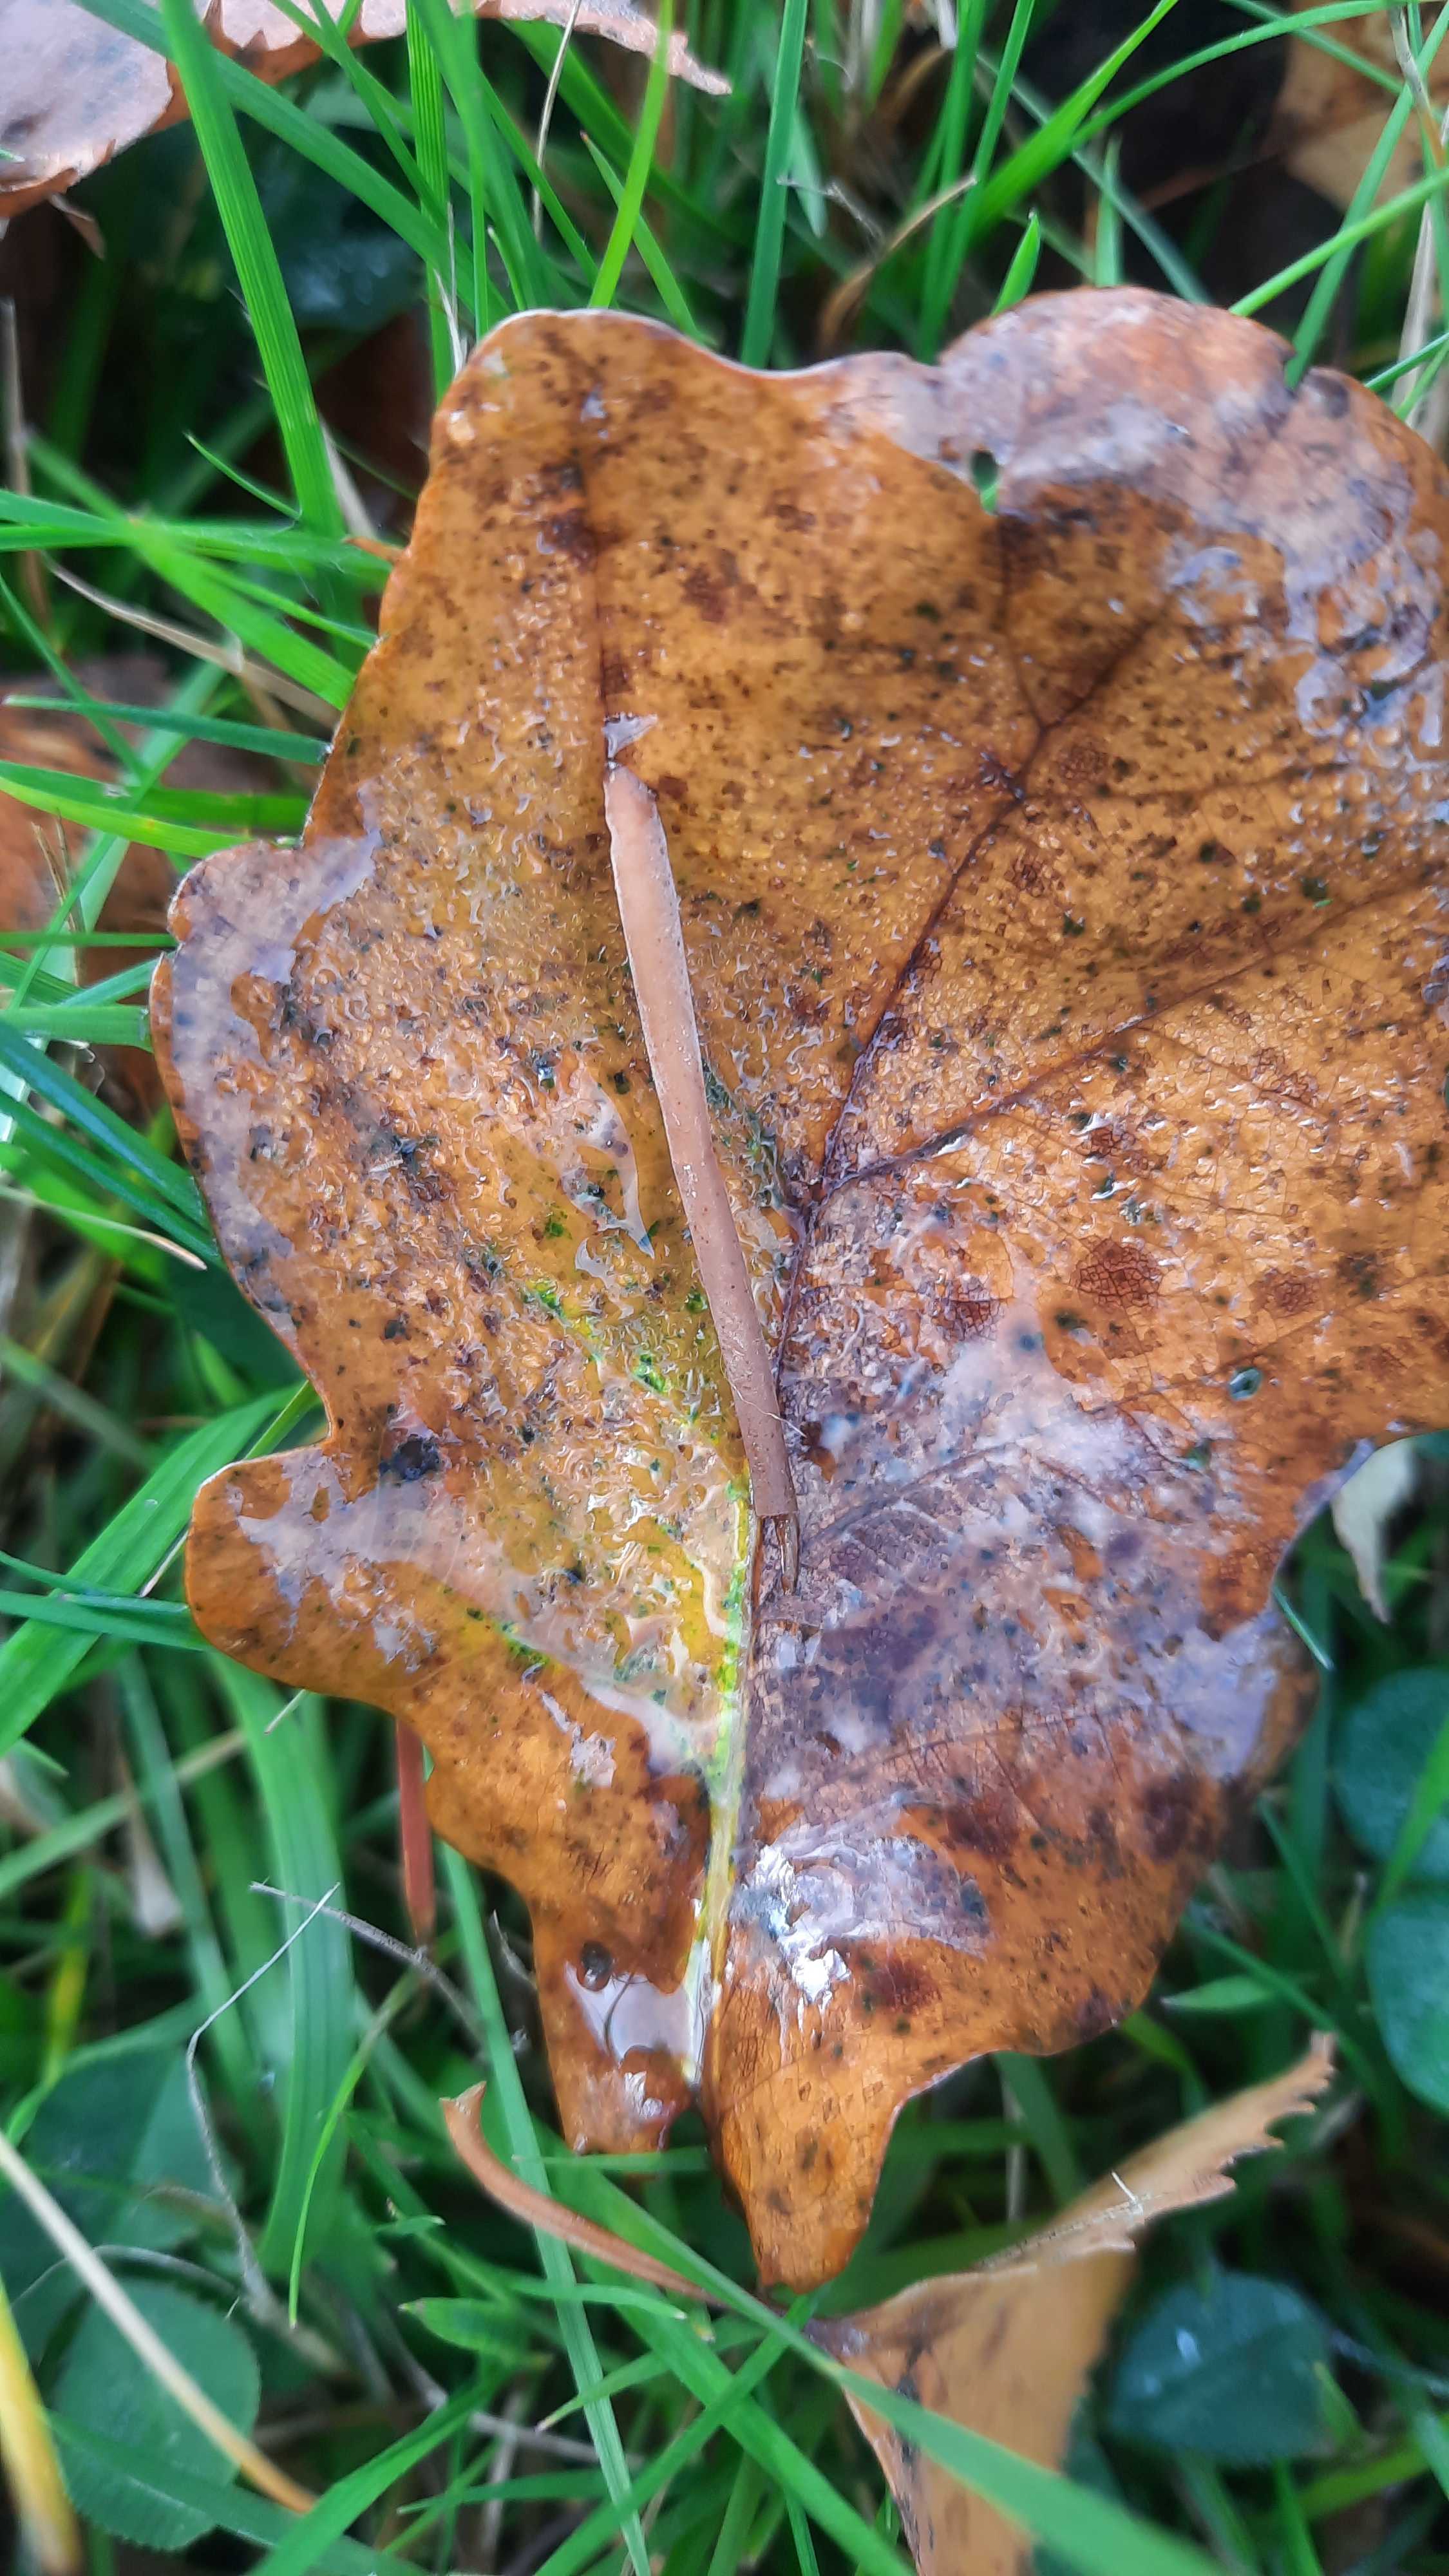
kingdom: Fungi
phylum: Basidiomycota
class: Agaricomycetes
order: Agaricales
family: Typhulaceae
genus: Typhula
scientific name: Typhula fistulosa
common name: pibet rørkølle
